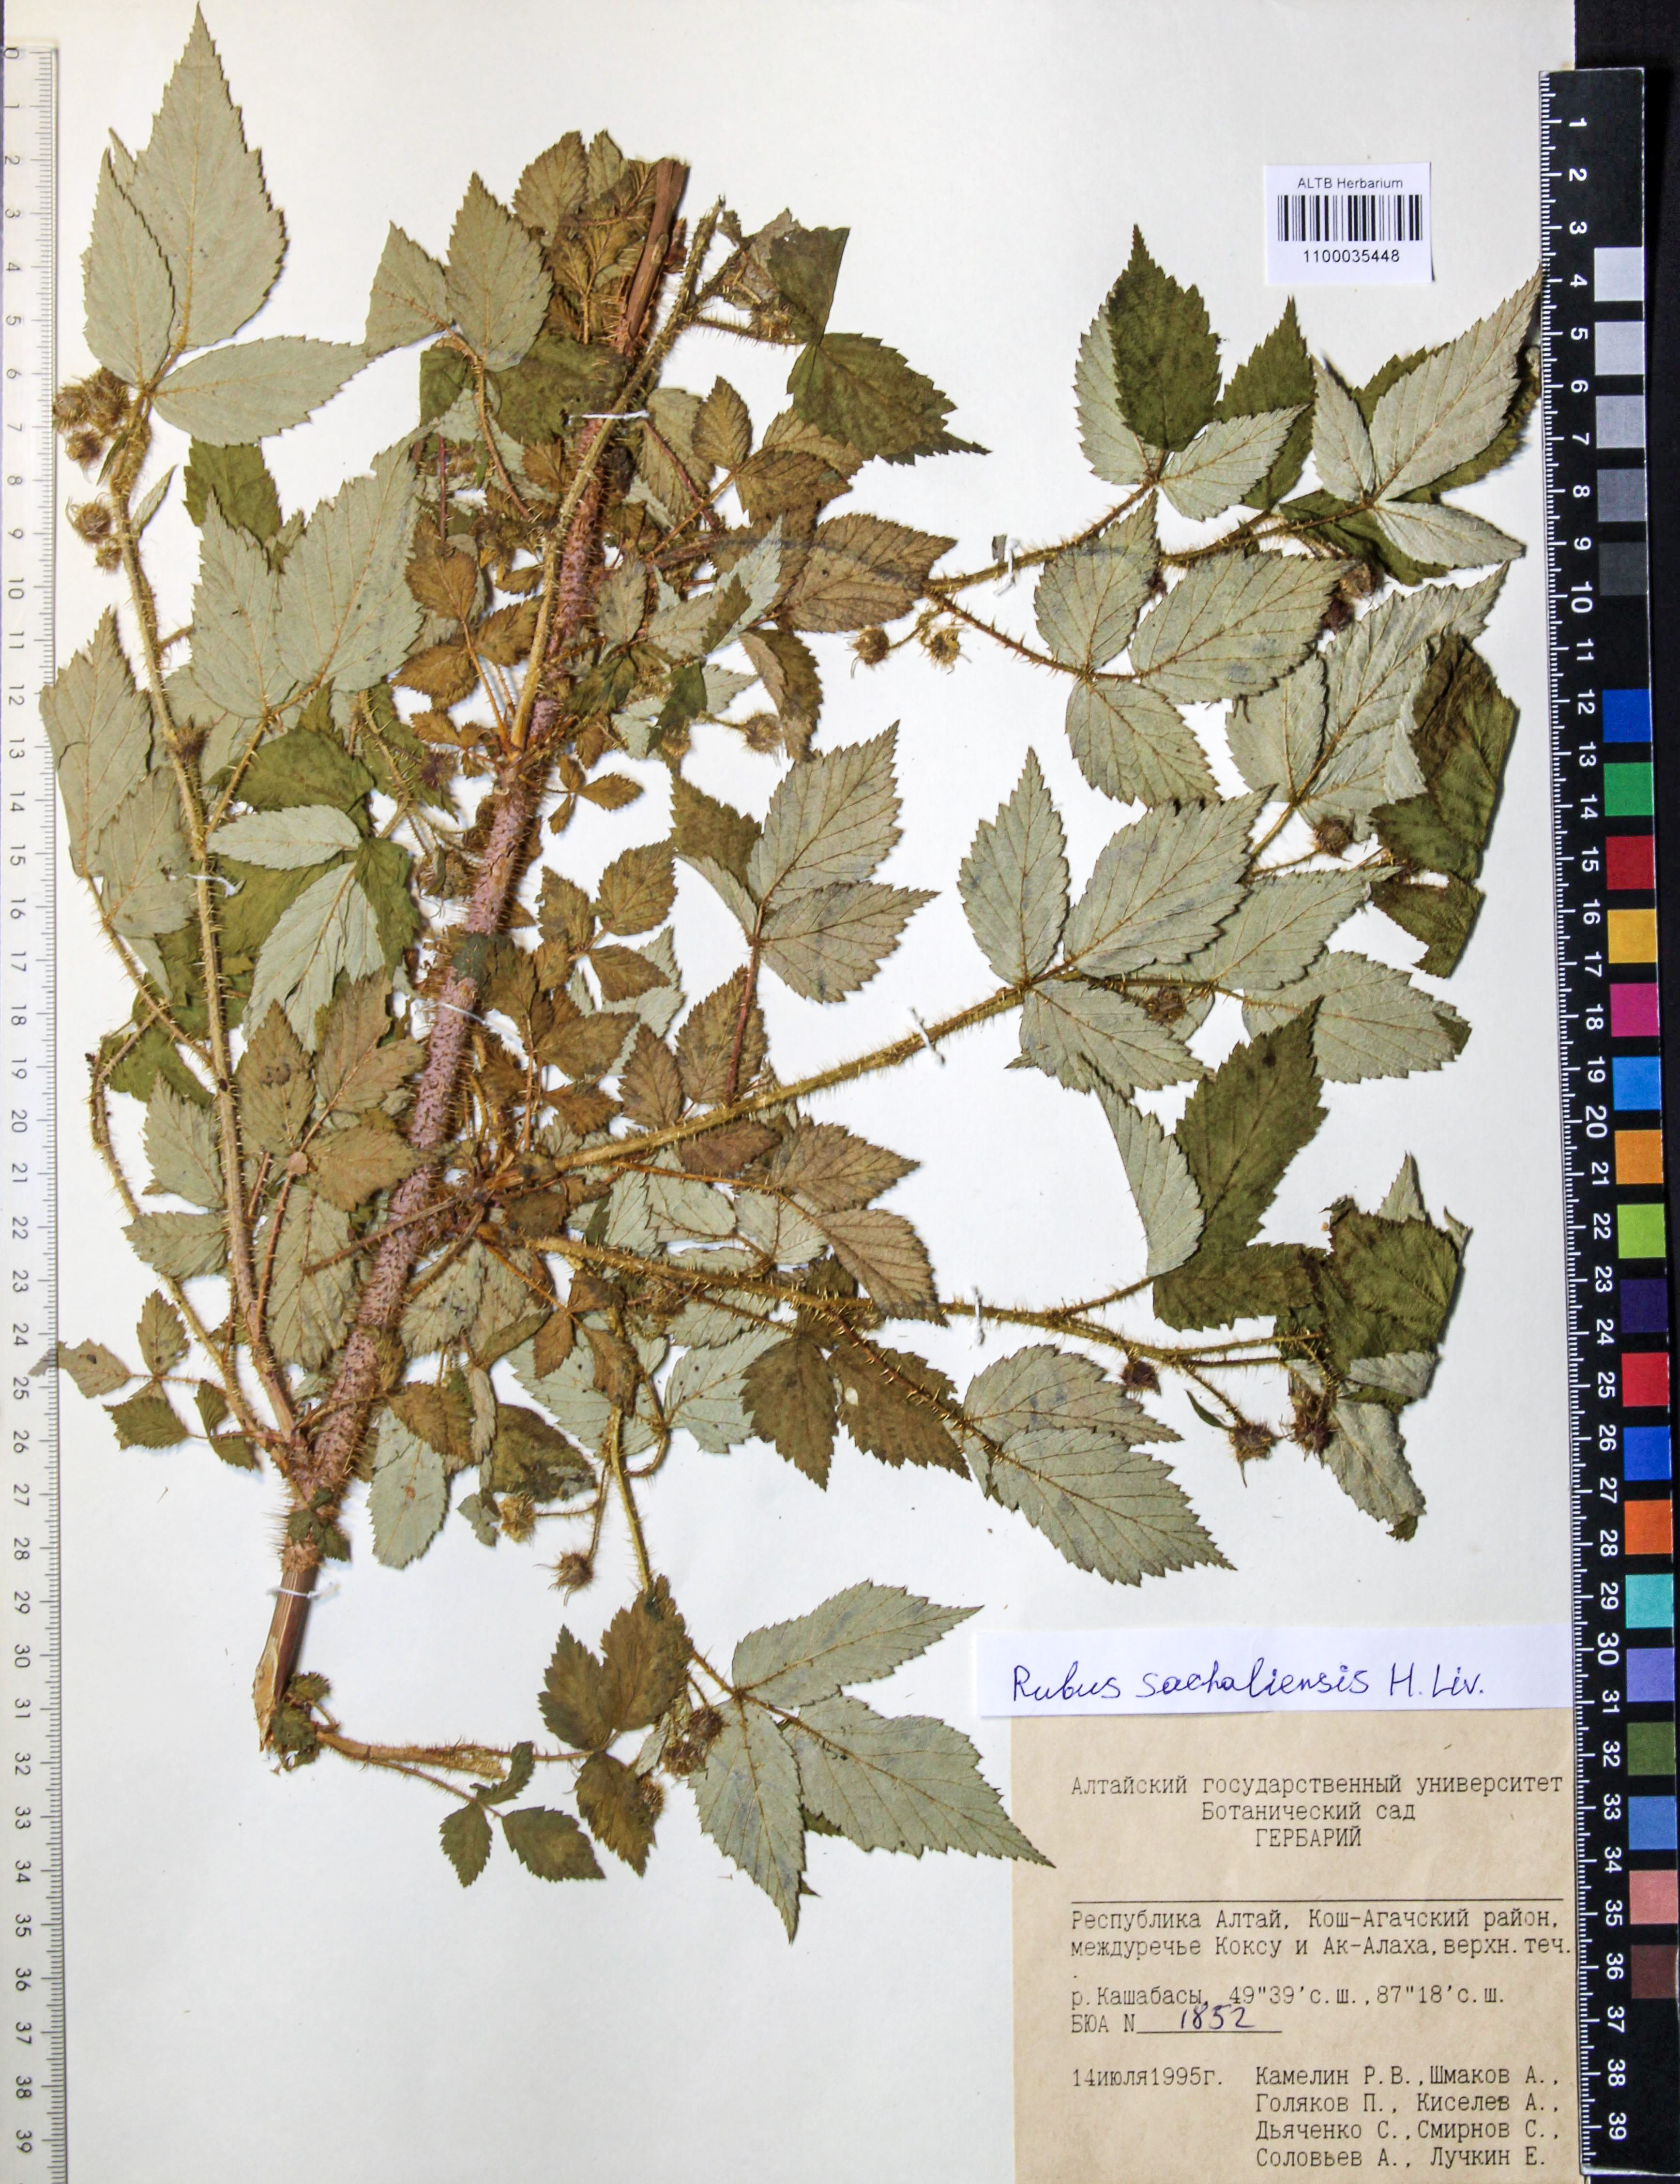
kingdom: Plantae
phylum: Tracheophyta
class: Magnoliopsida
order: Rosales
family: Rosaceae
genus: Rubus
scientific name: Rubus sachalinensis
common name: Red raspberry
